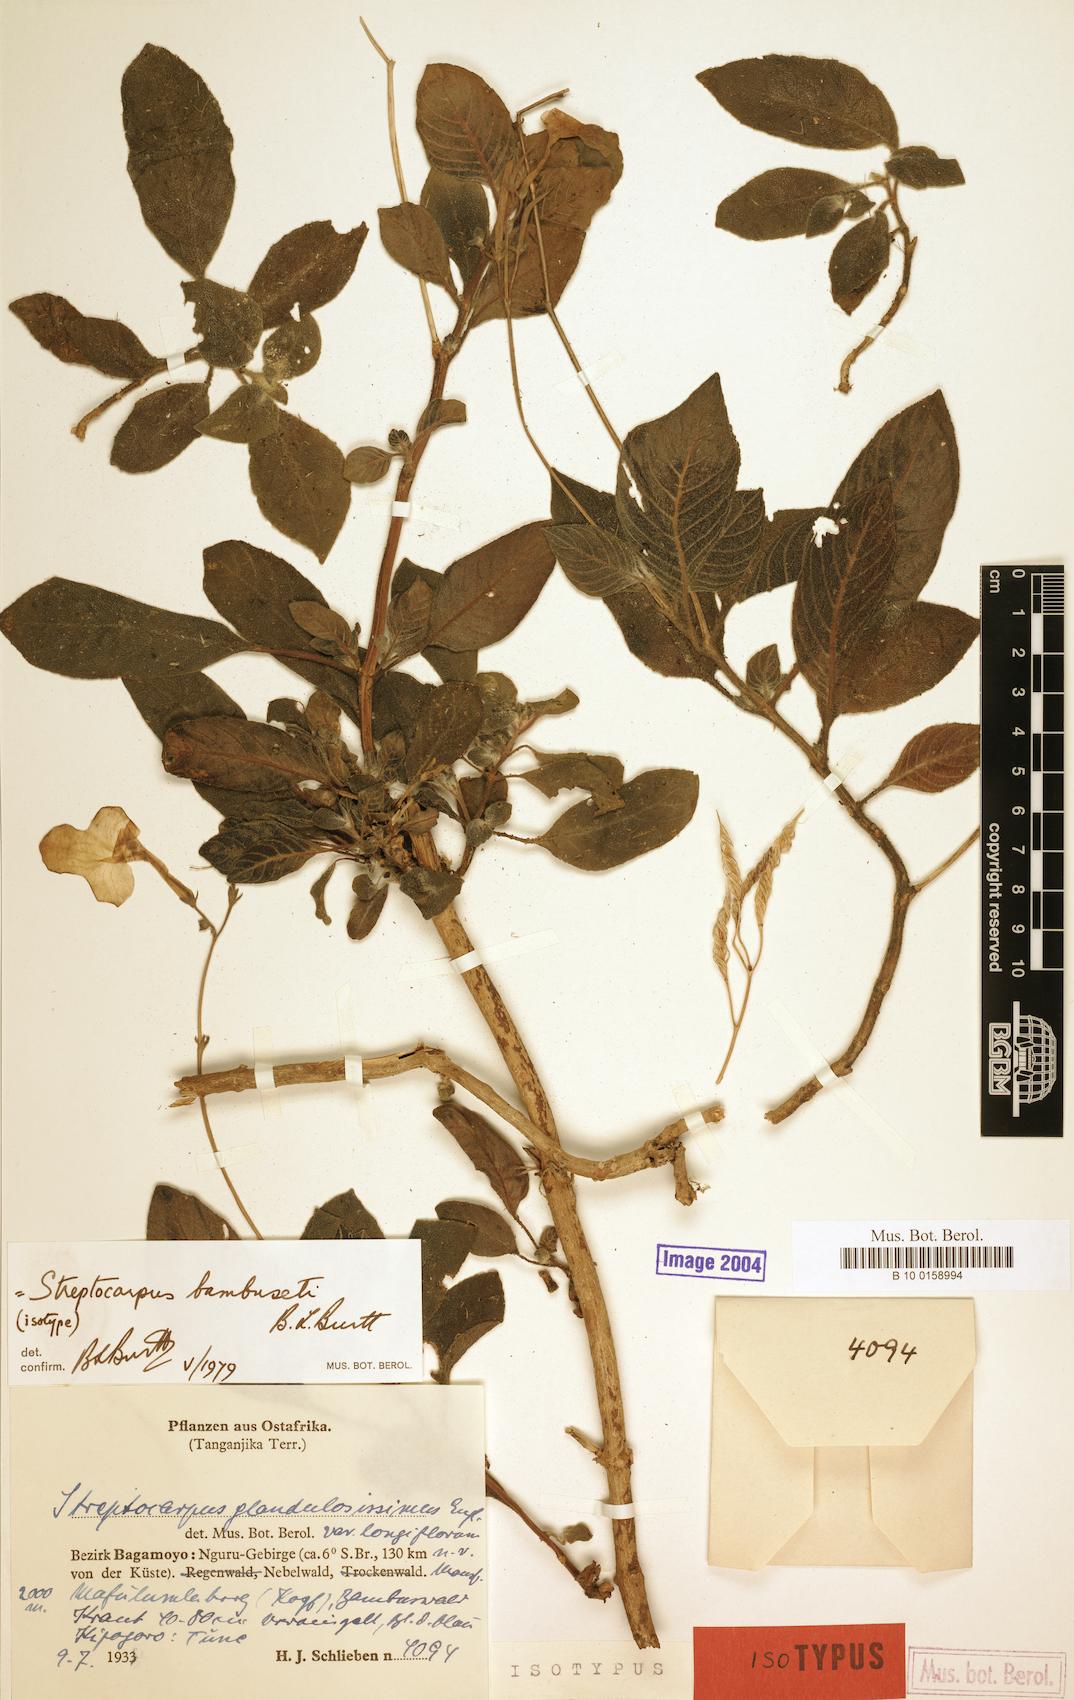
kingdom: Plantae
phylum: Tracheophyta
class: Magnoliopsida
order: Lamiales
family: Gesneriaceae
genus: Streptocarpus
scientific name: Streptocarpus bambuseti
